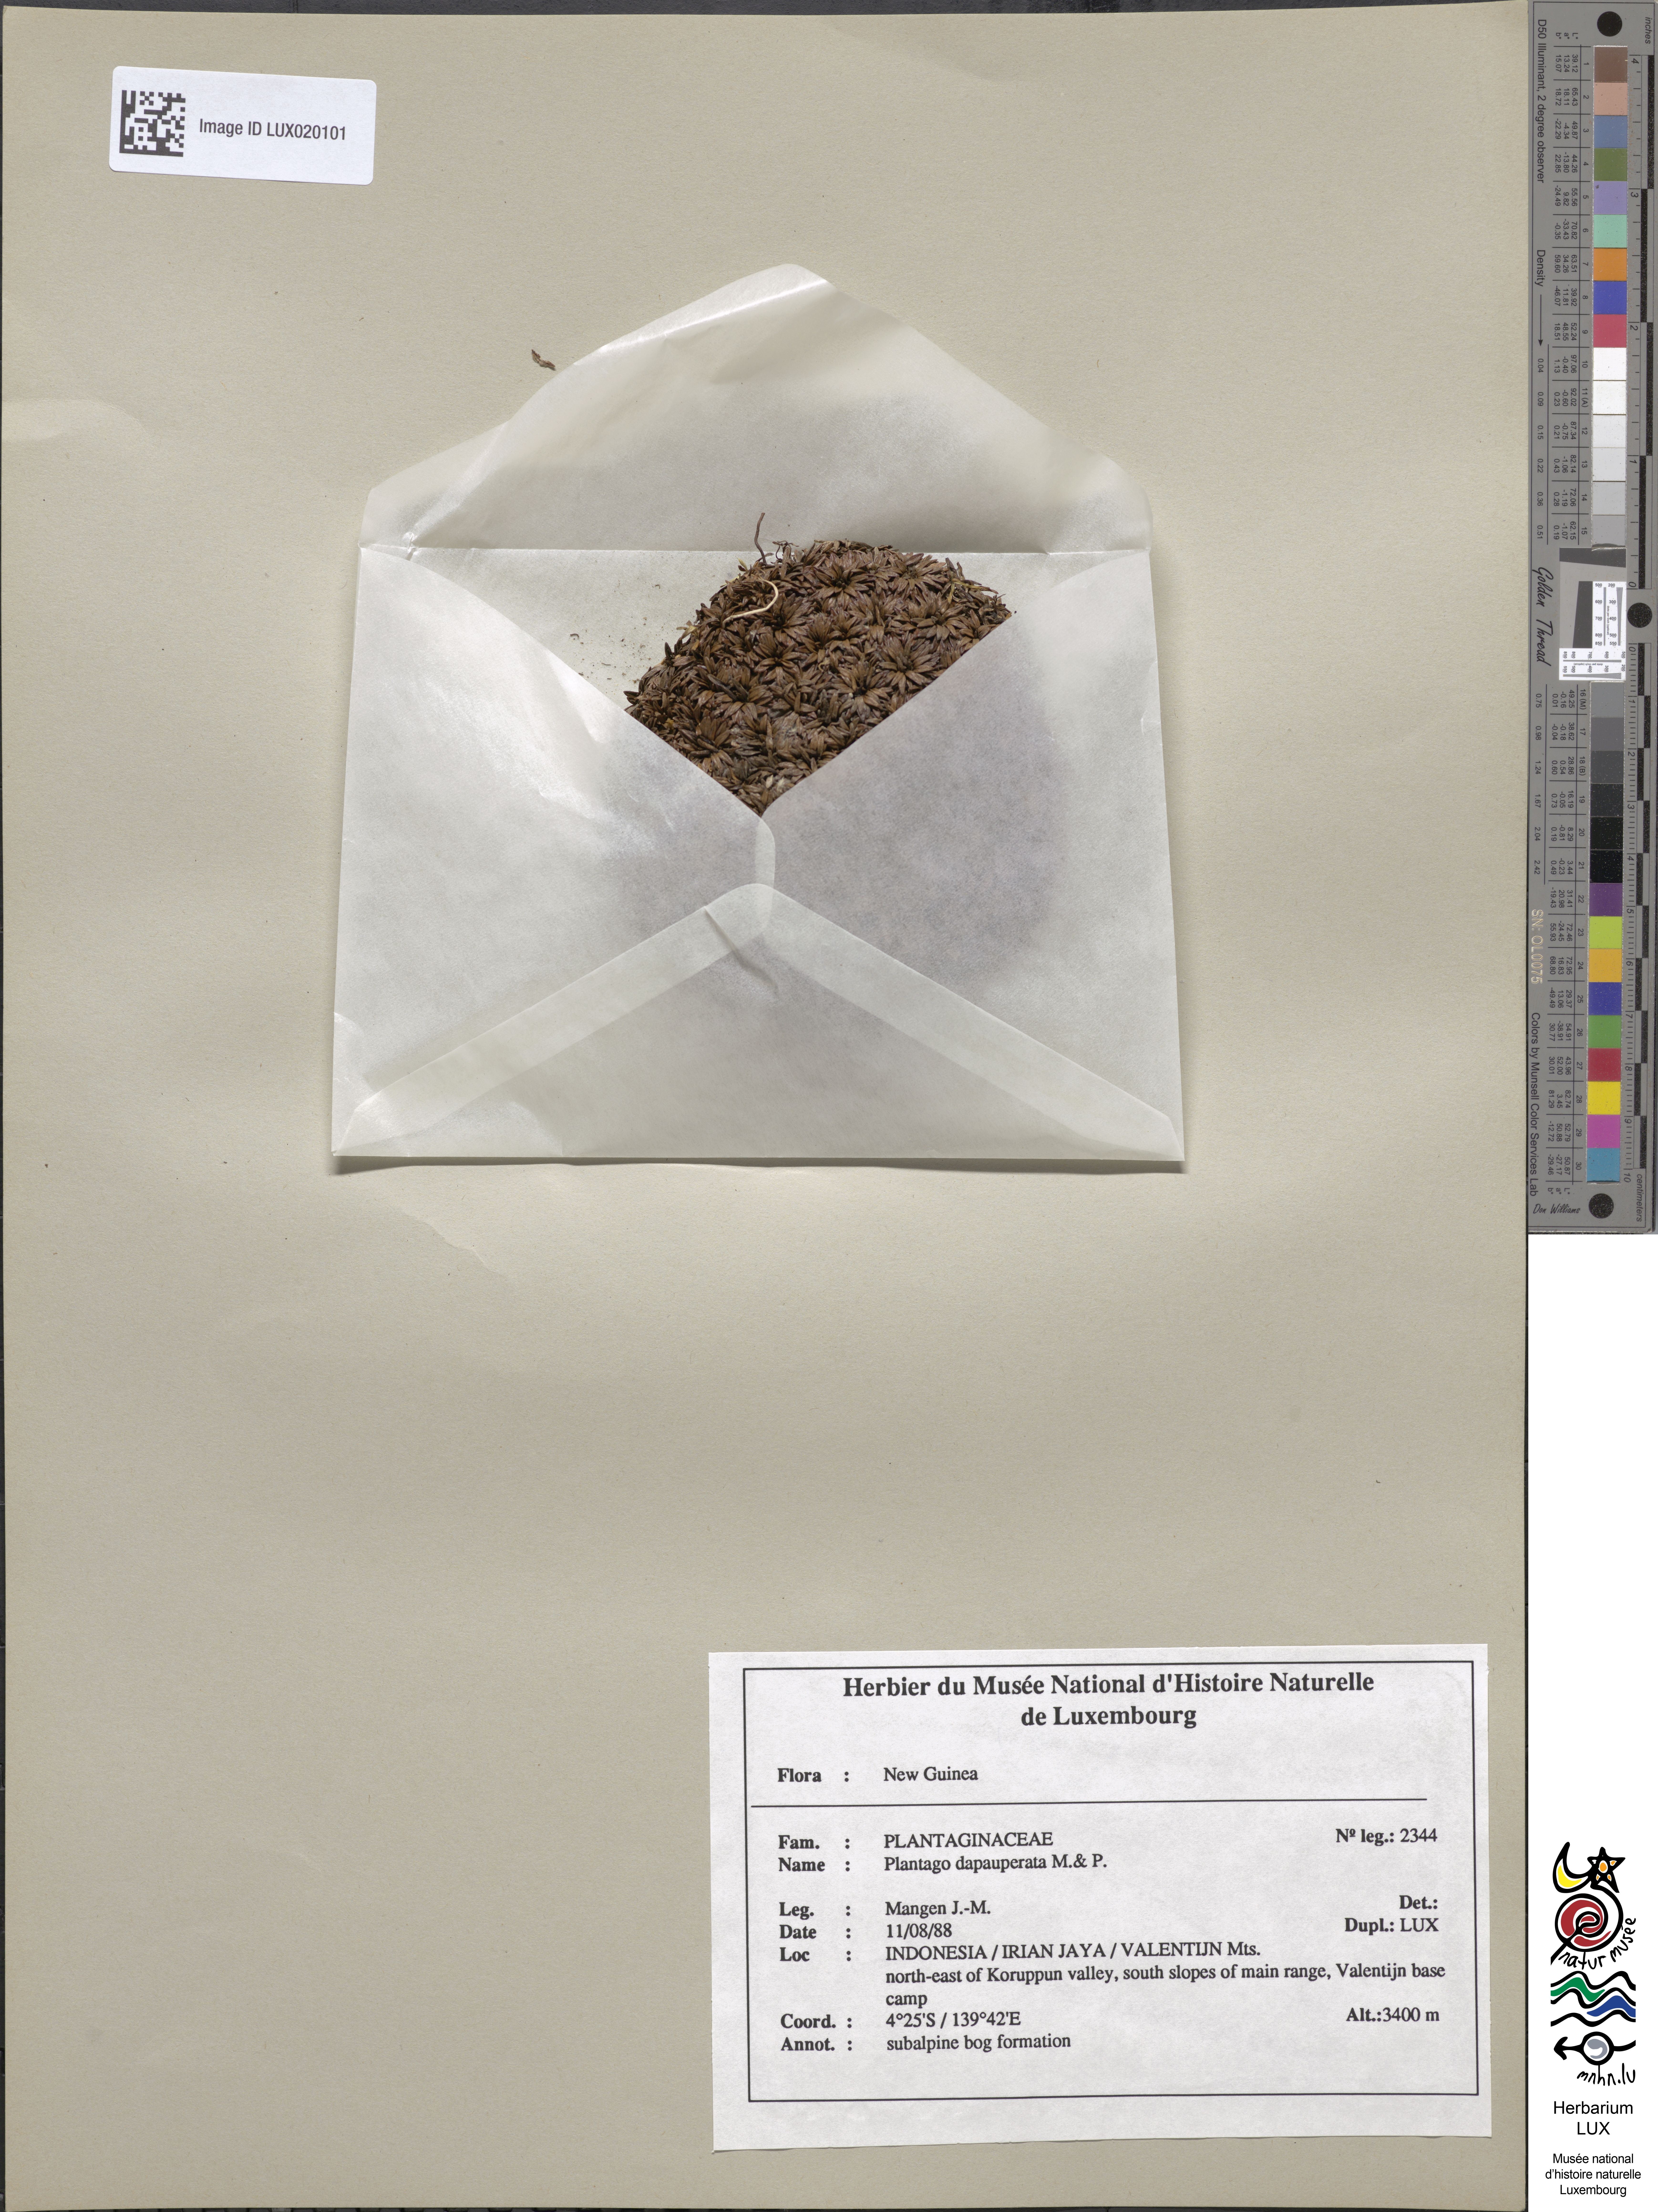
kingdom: Plantae
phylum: Tracheophyta
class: Magnoliopsida
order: Lamiales
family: Plantaginaceae
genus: Plantago
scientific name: Plantago depauperata
